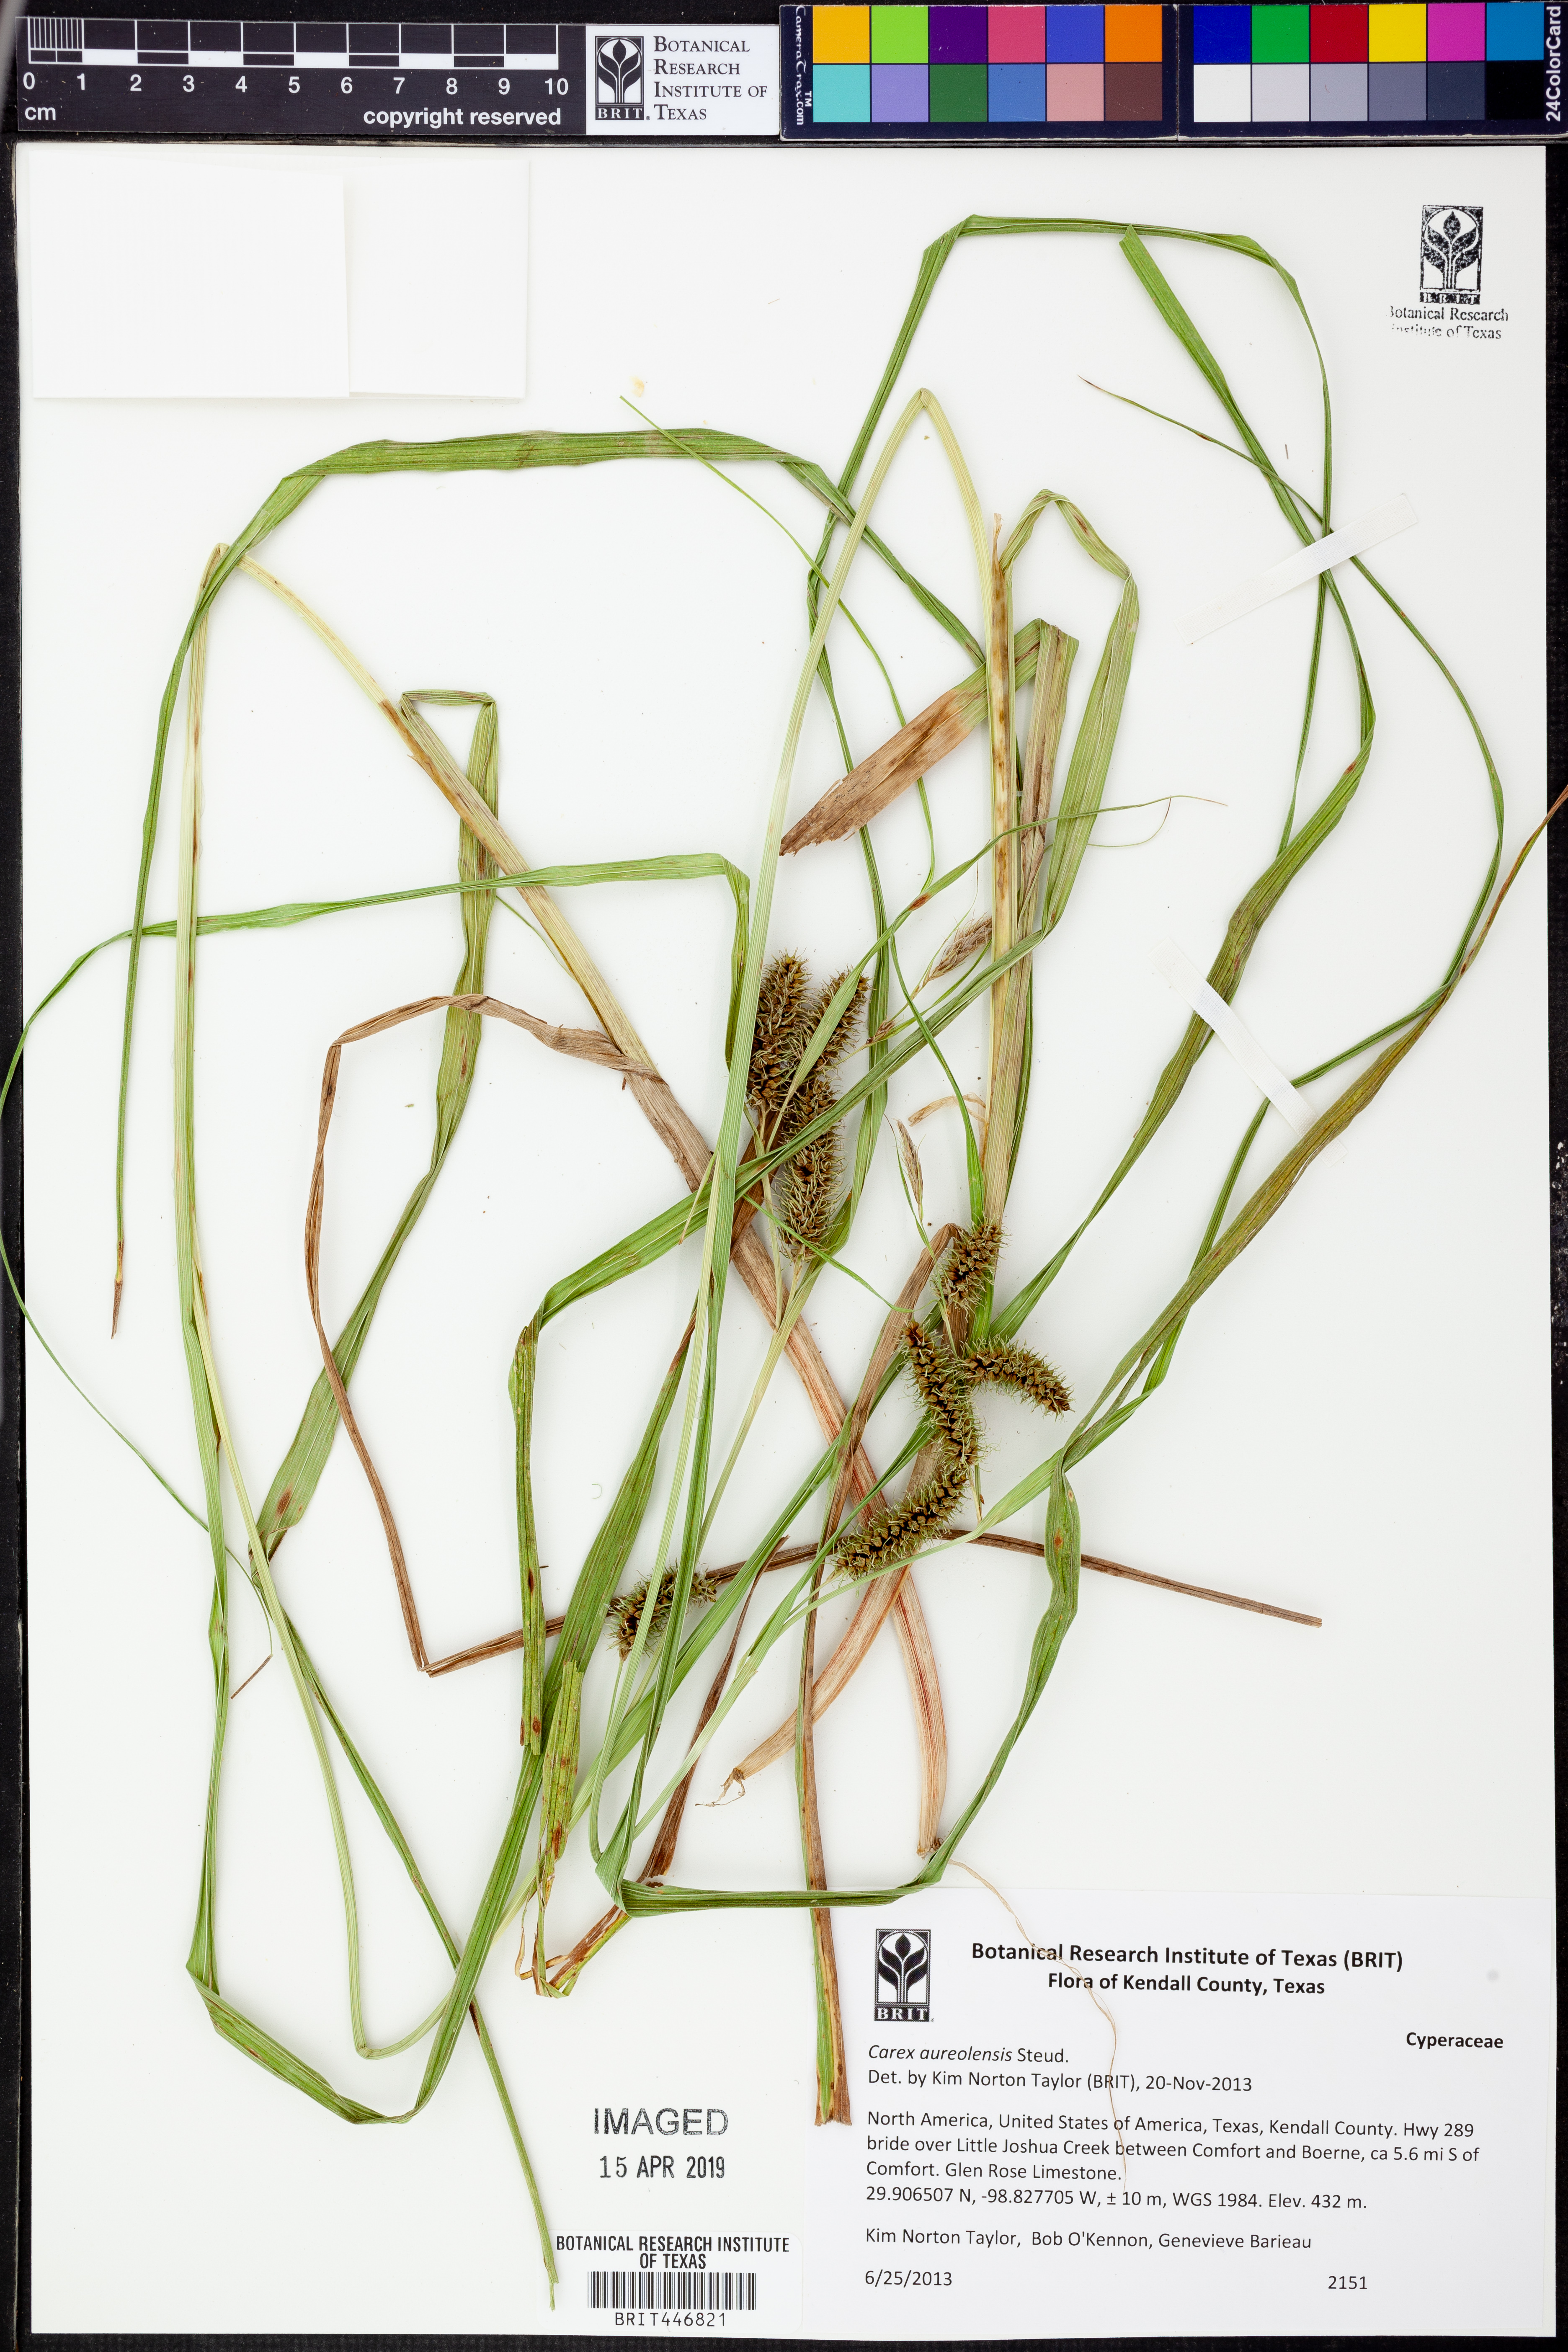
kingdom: Plantae
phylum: Tracheophyta
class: Liliopsida
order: Poales
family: Cyperaceae
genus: Carex
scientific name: Carex aureolensis
